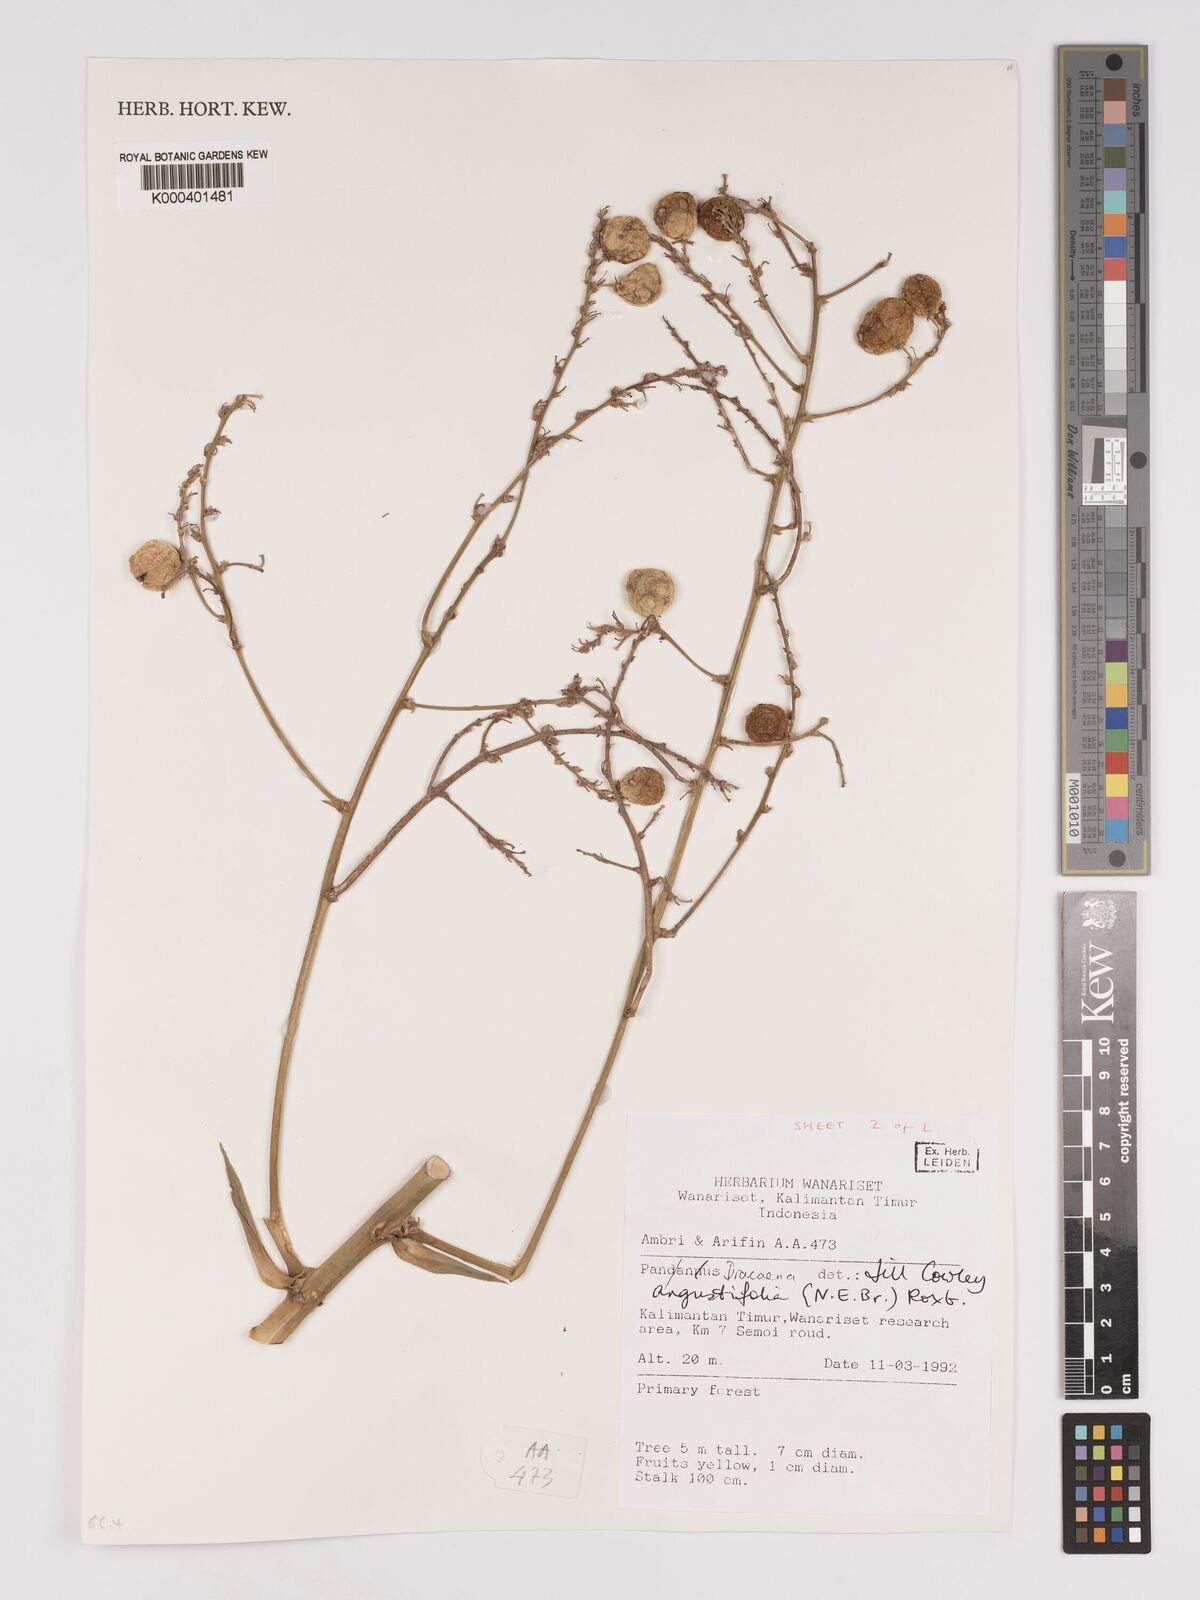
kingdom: Plantae
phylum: Tracheophyta
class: Liliopsida
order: Asparagales
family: Asparagaceae
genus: Dracaena
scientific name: Dracaena angustifolia
